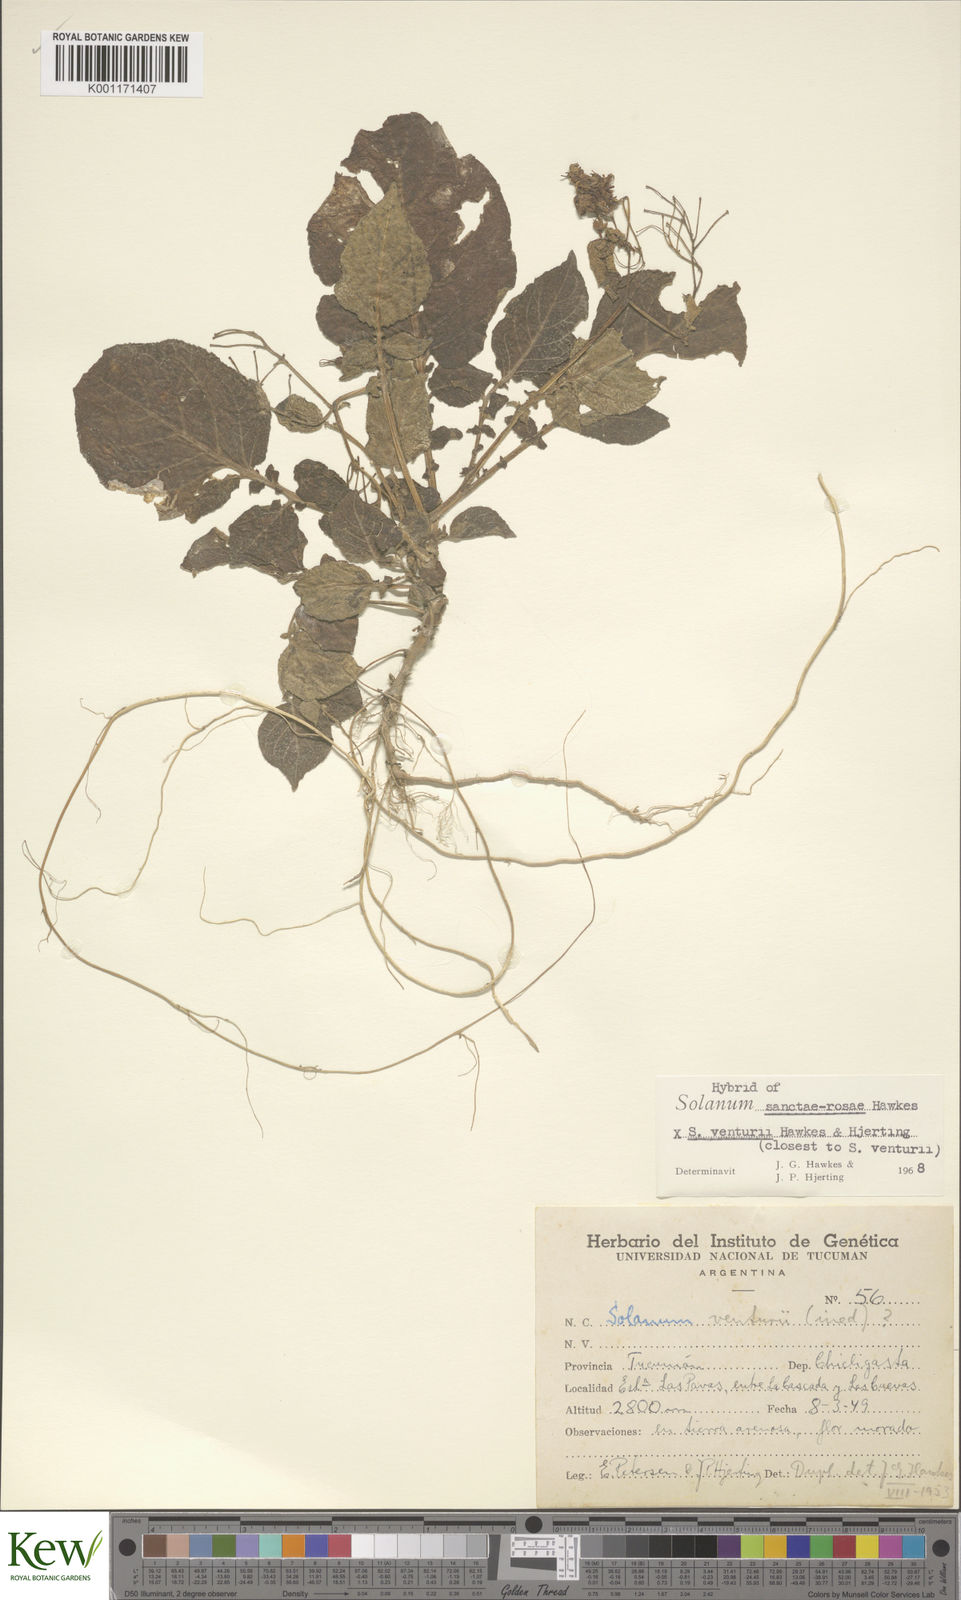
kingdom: Plantae
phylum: Tracheophyta
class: Magnoliopsida
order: Solanales
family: Solanaceae
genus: Solanum
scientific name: Solanum boliviense
